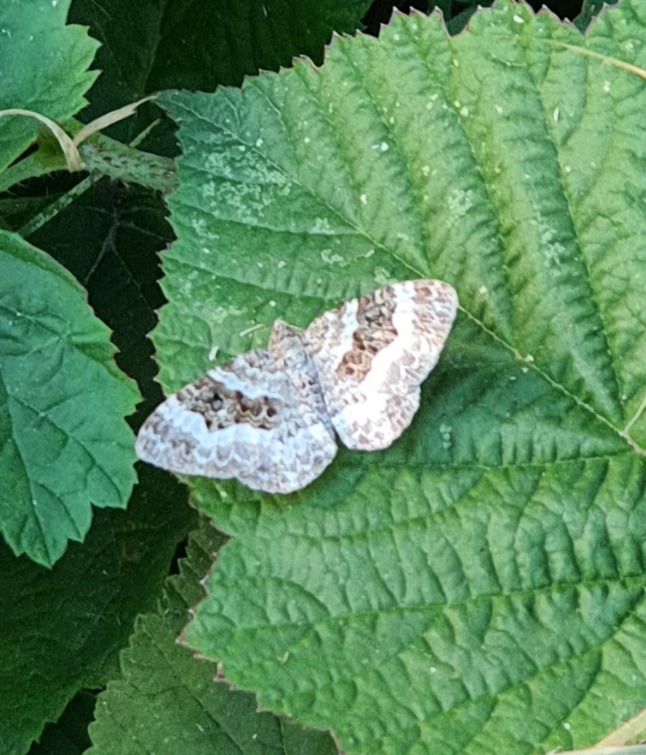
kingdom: Animalia
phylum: Arthropoda
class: Insecta
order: Lepidoptera
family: Geometridae
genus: Epirrhoe
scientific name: Epirrhoe alternata
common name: Almindelig bladmåler
